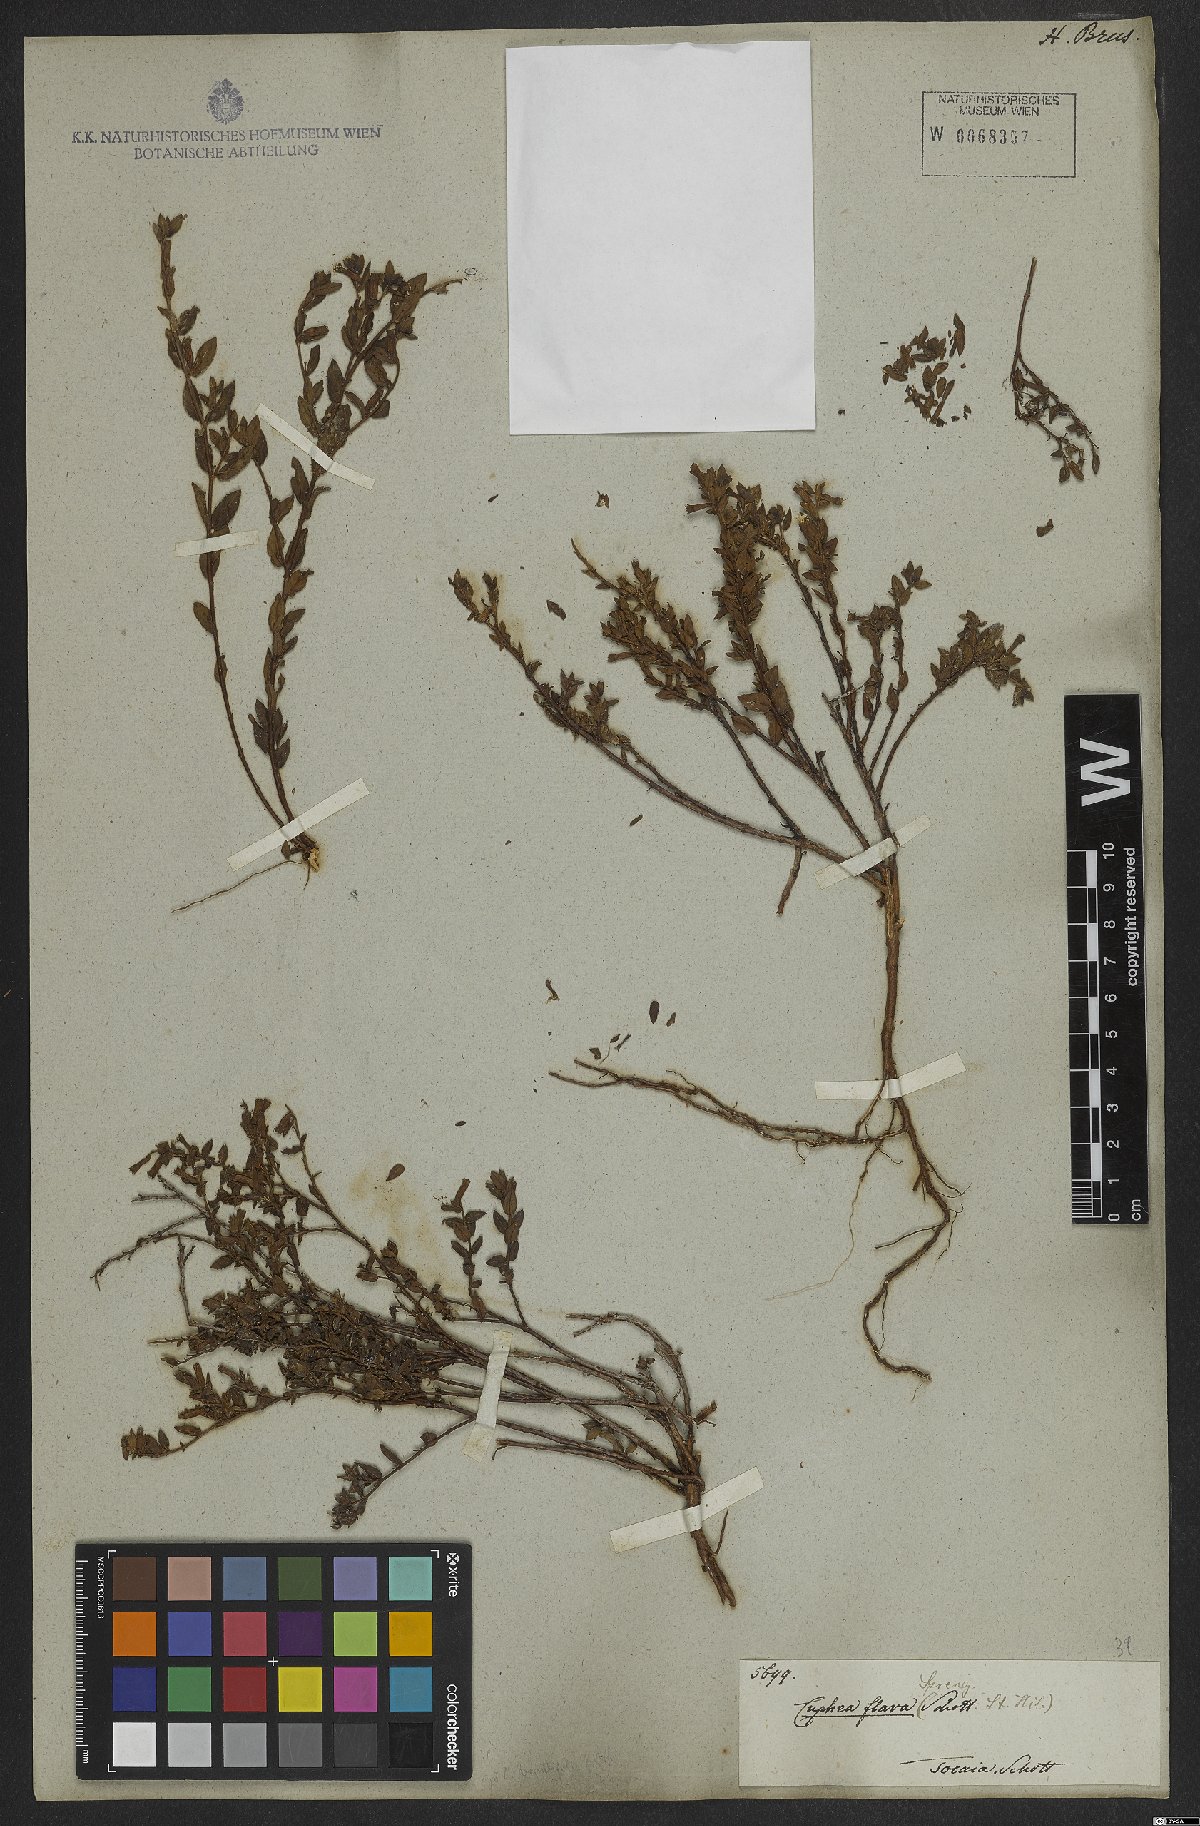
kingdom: Plantae
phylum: Tracheophyta
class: Magnoliopsida
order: Myrtales
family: Lythraceae
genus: Cuphea
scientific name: Cuphea flava
